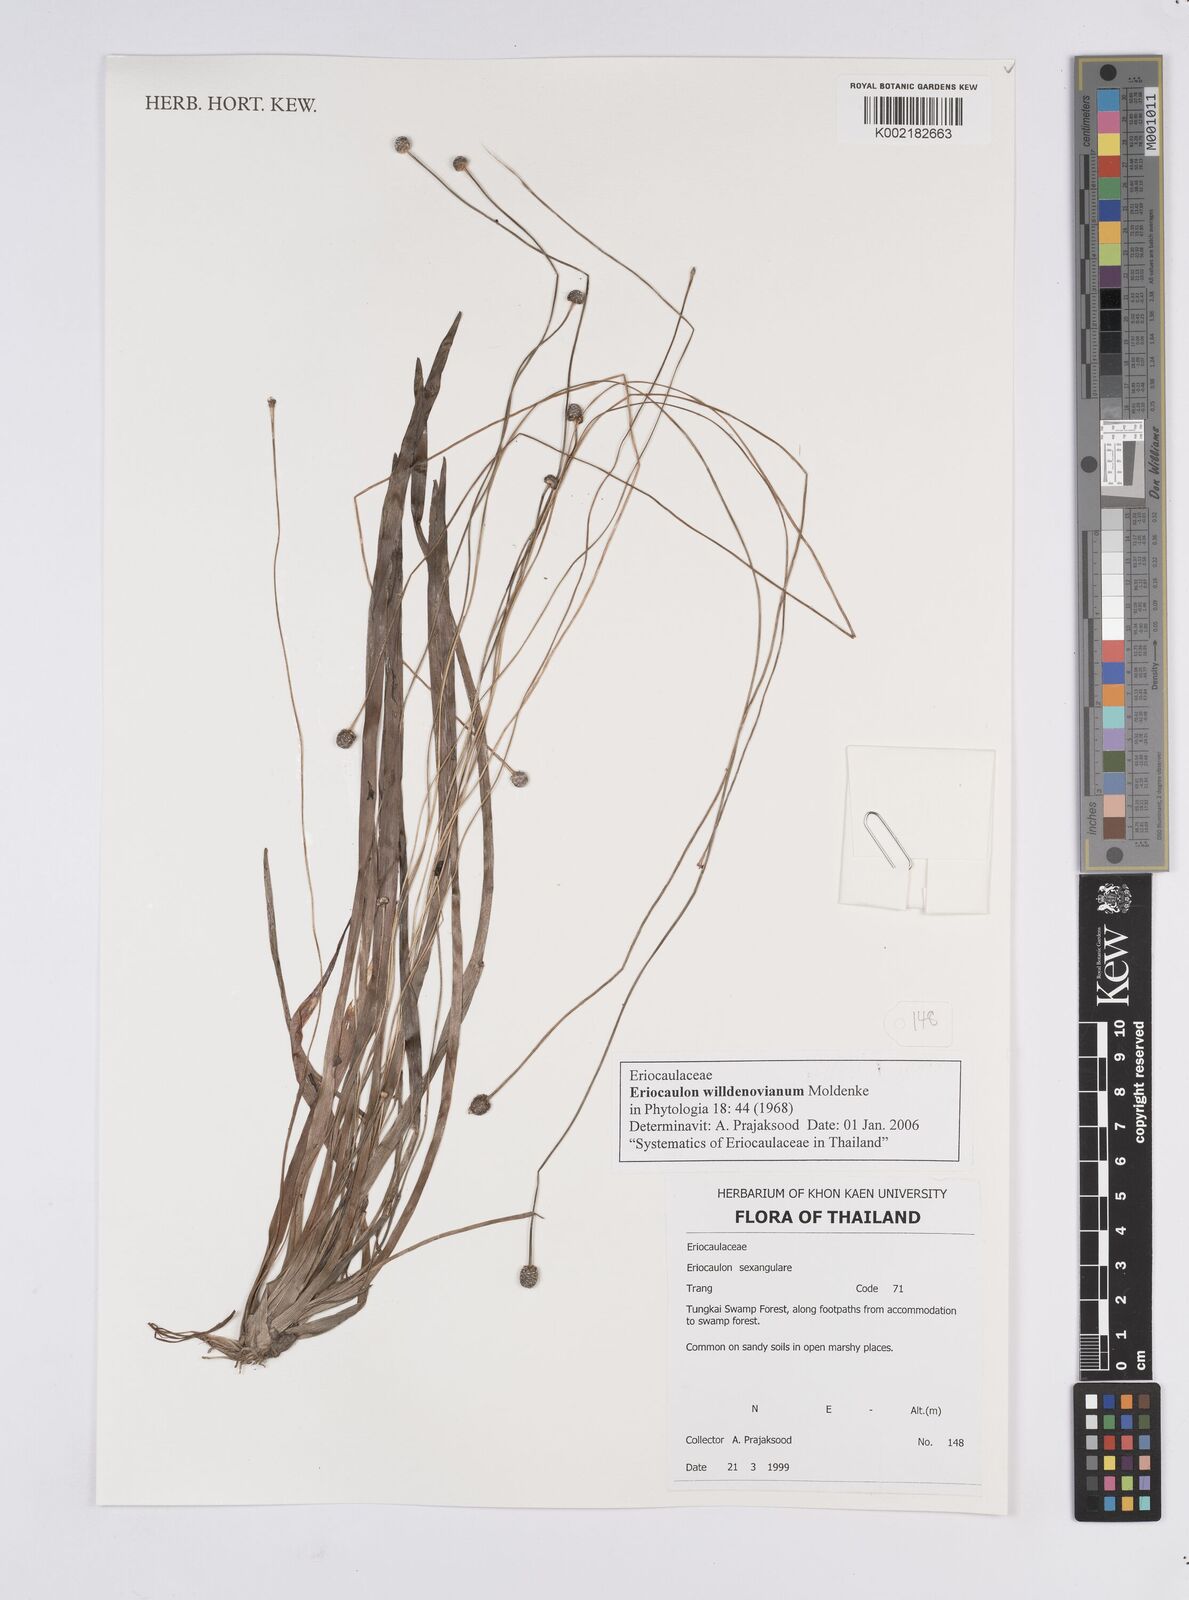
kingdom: Plantae
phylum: Tracheophyta
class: Liliopsida
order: Poales
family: Eriocaulaceae
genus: Eriocaulon
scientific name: Eriocaulon willdenovianum
